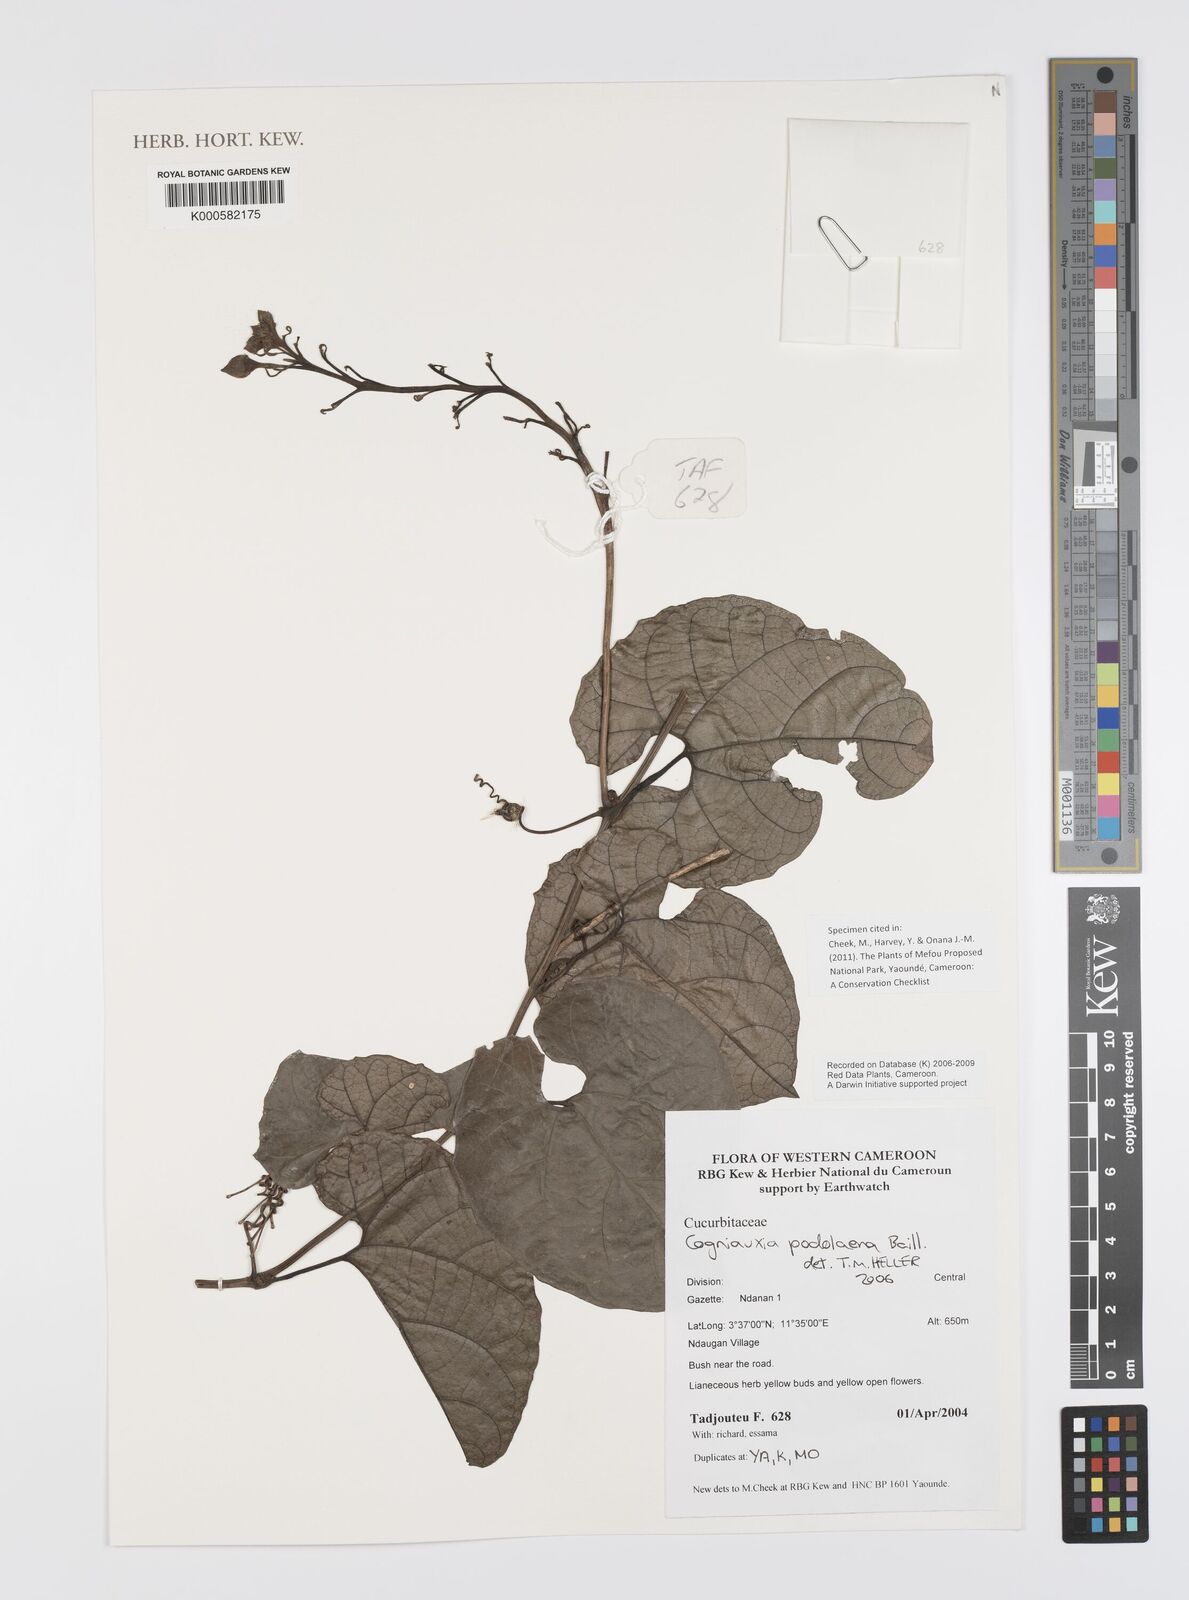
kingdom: Plantae
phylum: Tracheophyta
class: Magnoliopsida
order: Cucurbitales
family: Cucurbitaceae
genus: Cogniauxia
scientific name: Cogniauxia podolaena
